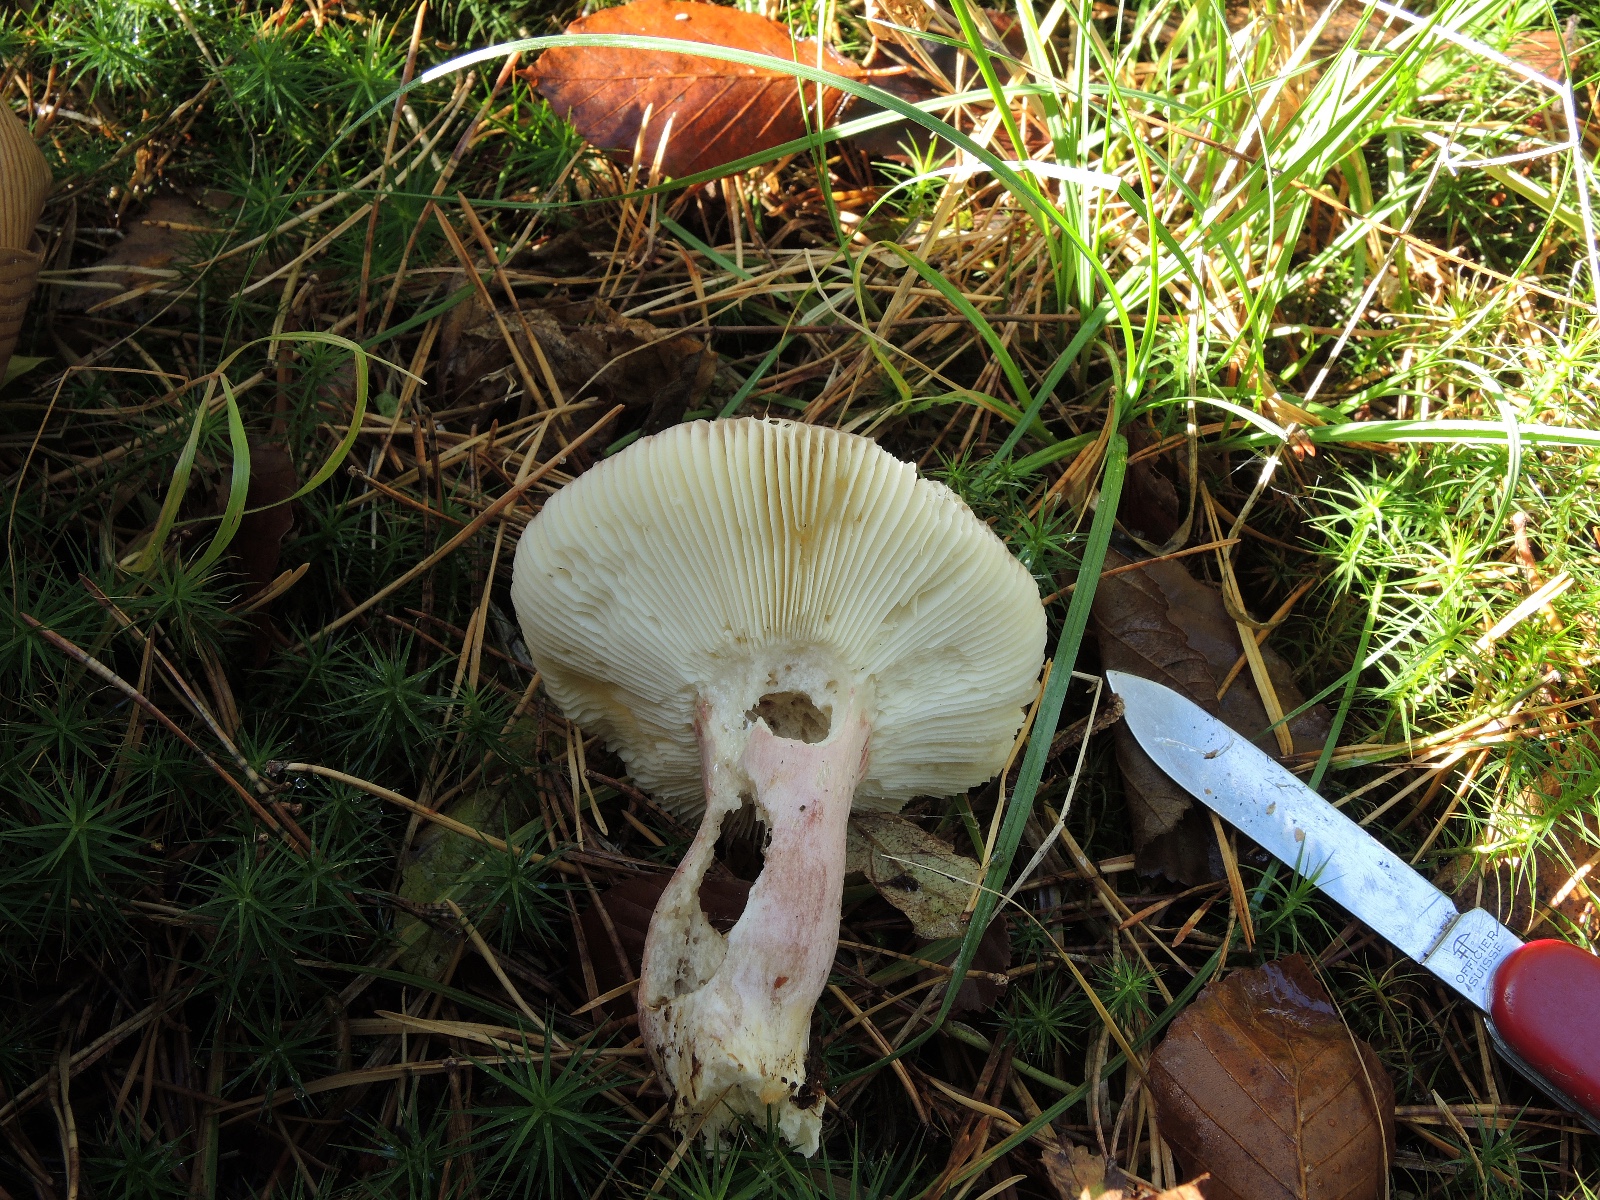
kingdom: Fungi
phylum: Basidiomycota
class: Agaricomycetes
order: Russulales
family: Russulaceae
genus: Russula
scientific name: Russula sardonia
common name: citronbladet skørhat
